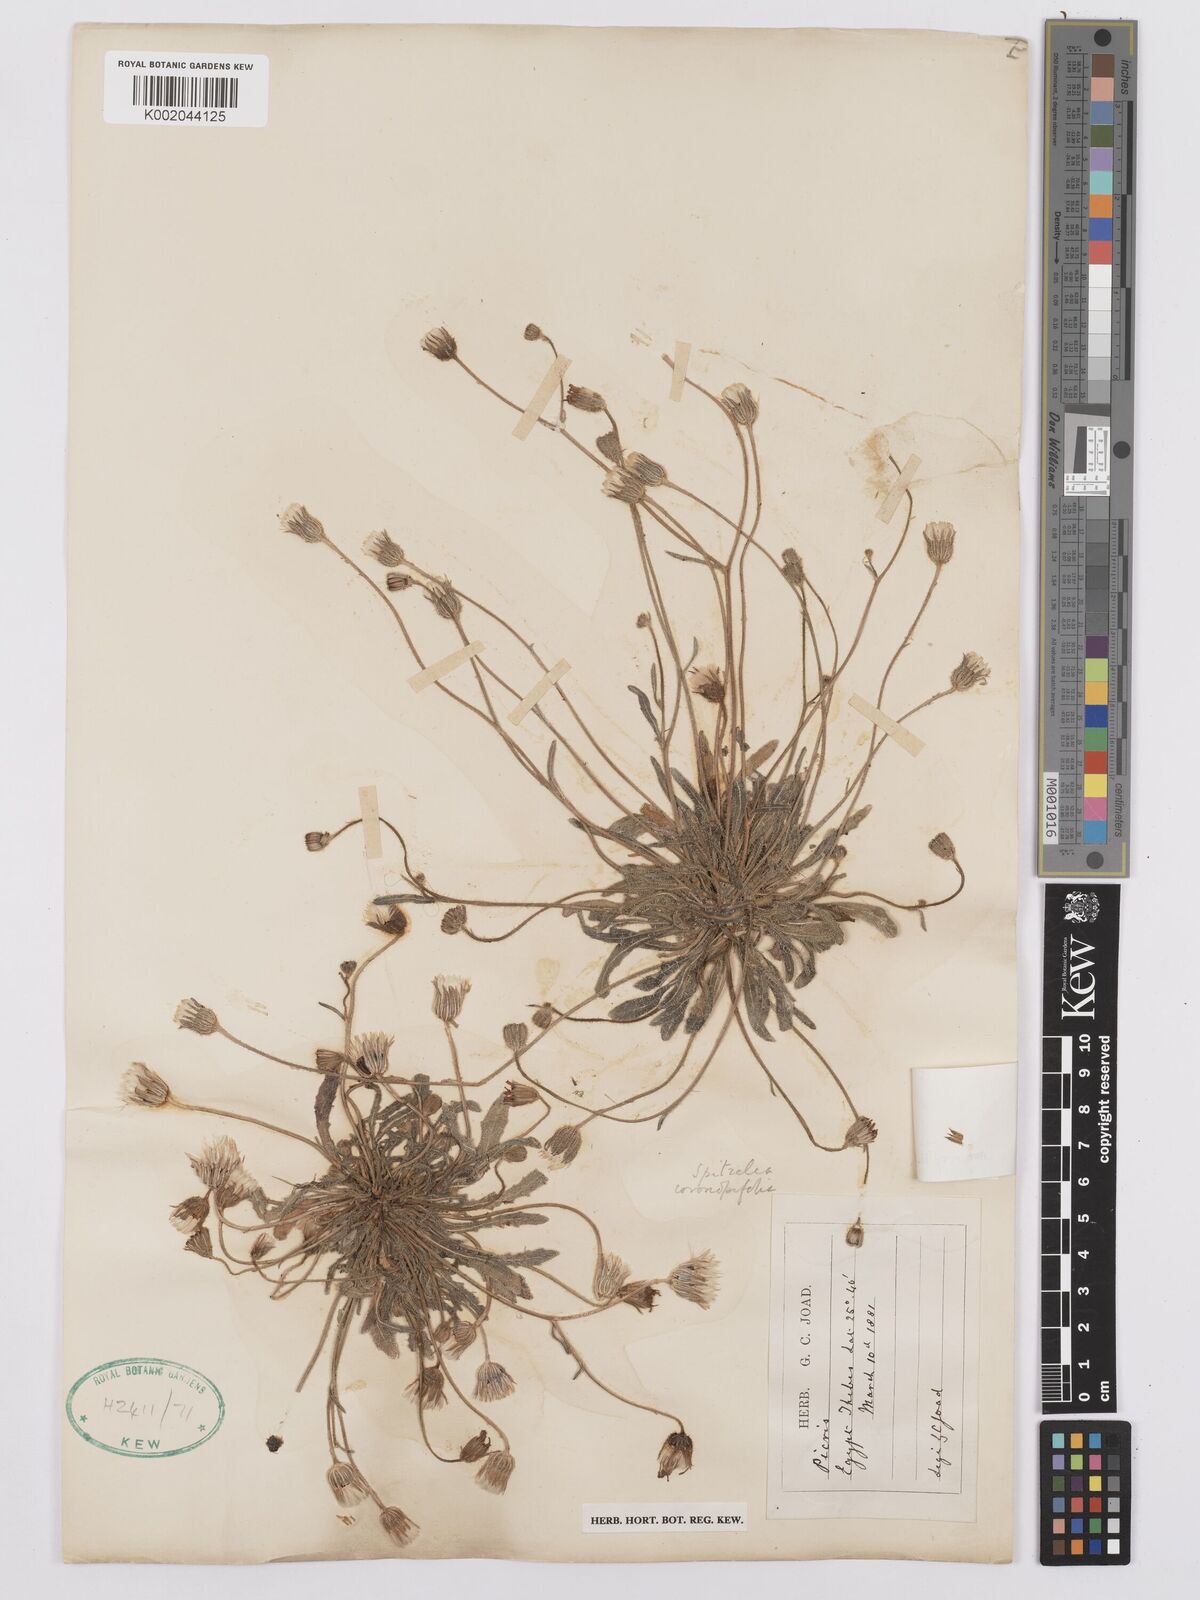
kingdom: Plantae
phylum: Tracheophyta
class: Magnoliopsida
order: Asterales
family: Asteraceae
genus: Picris
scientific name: Picris sulphurea
